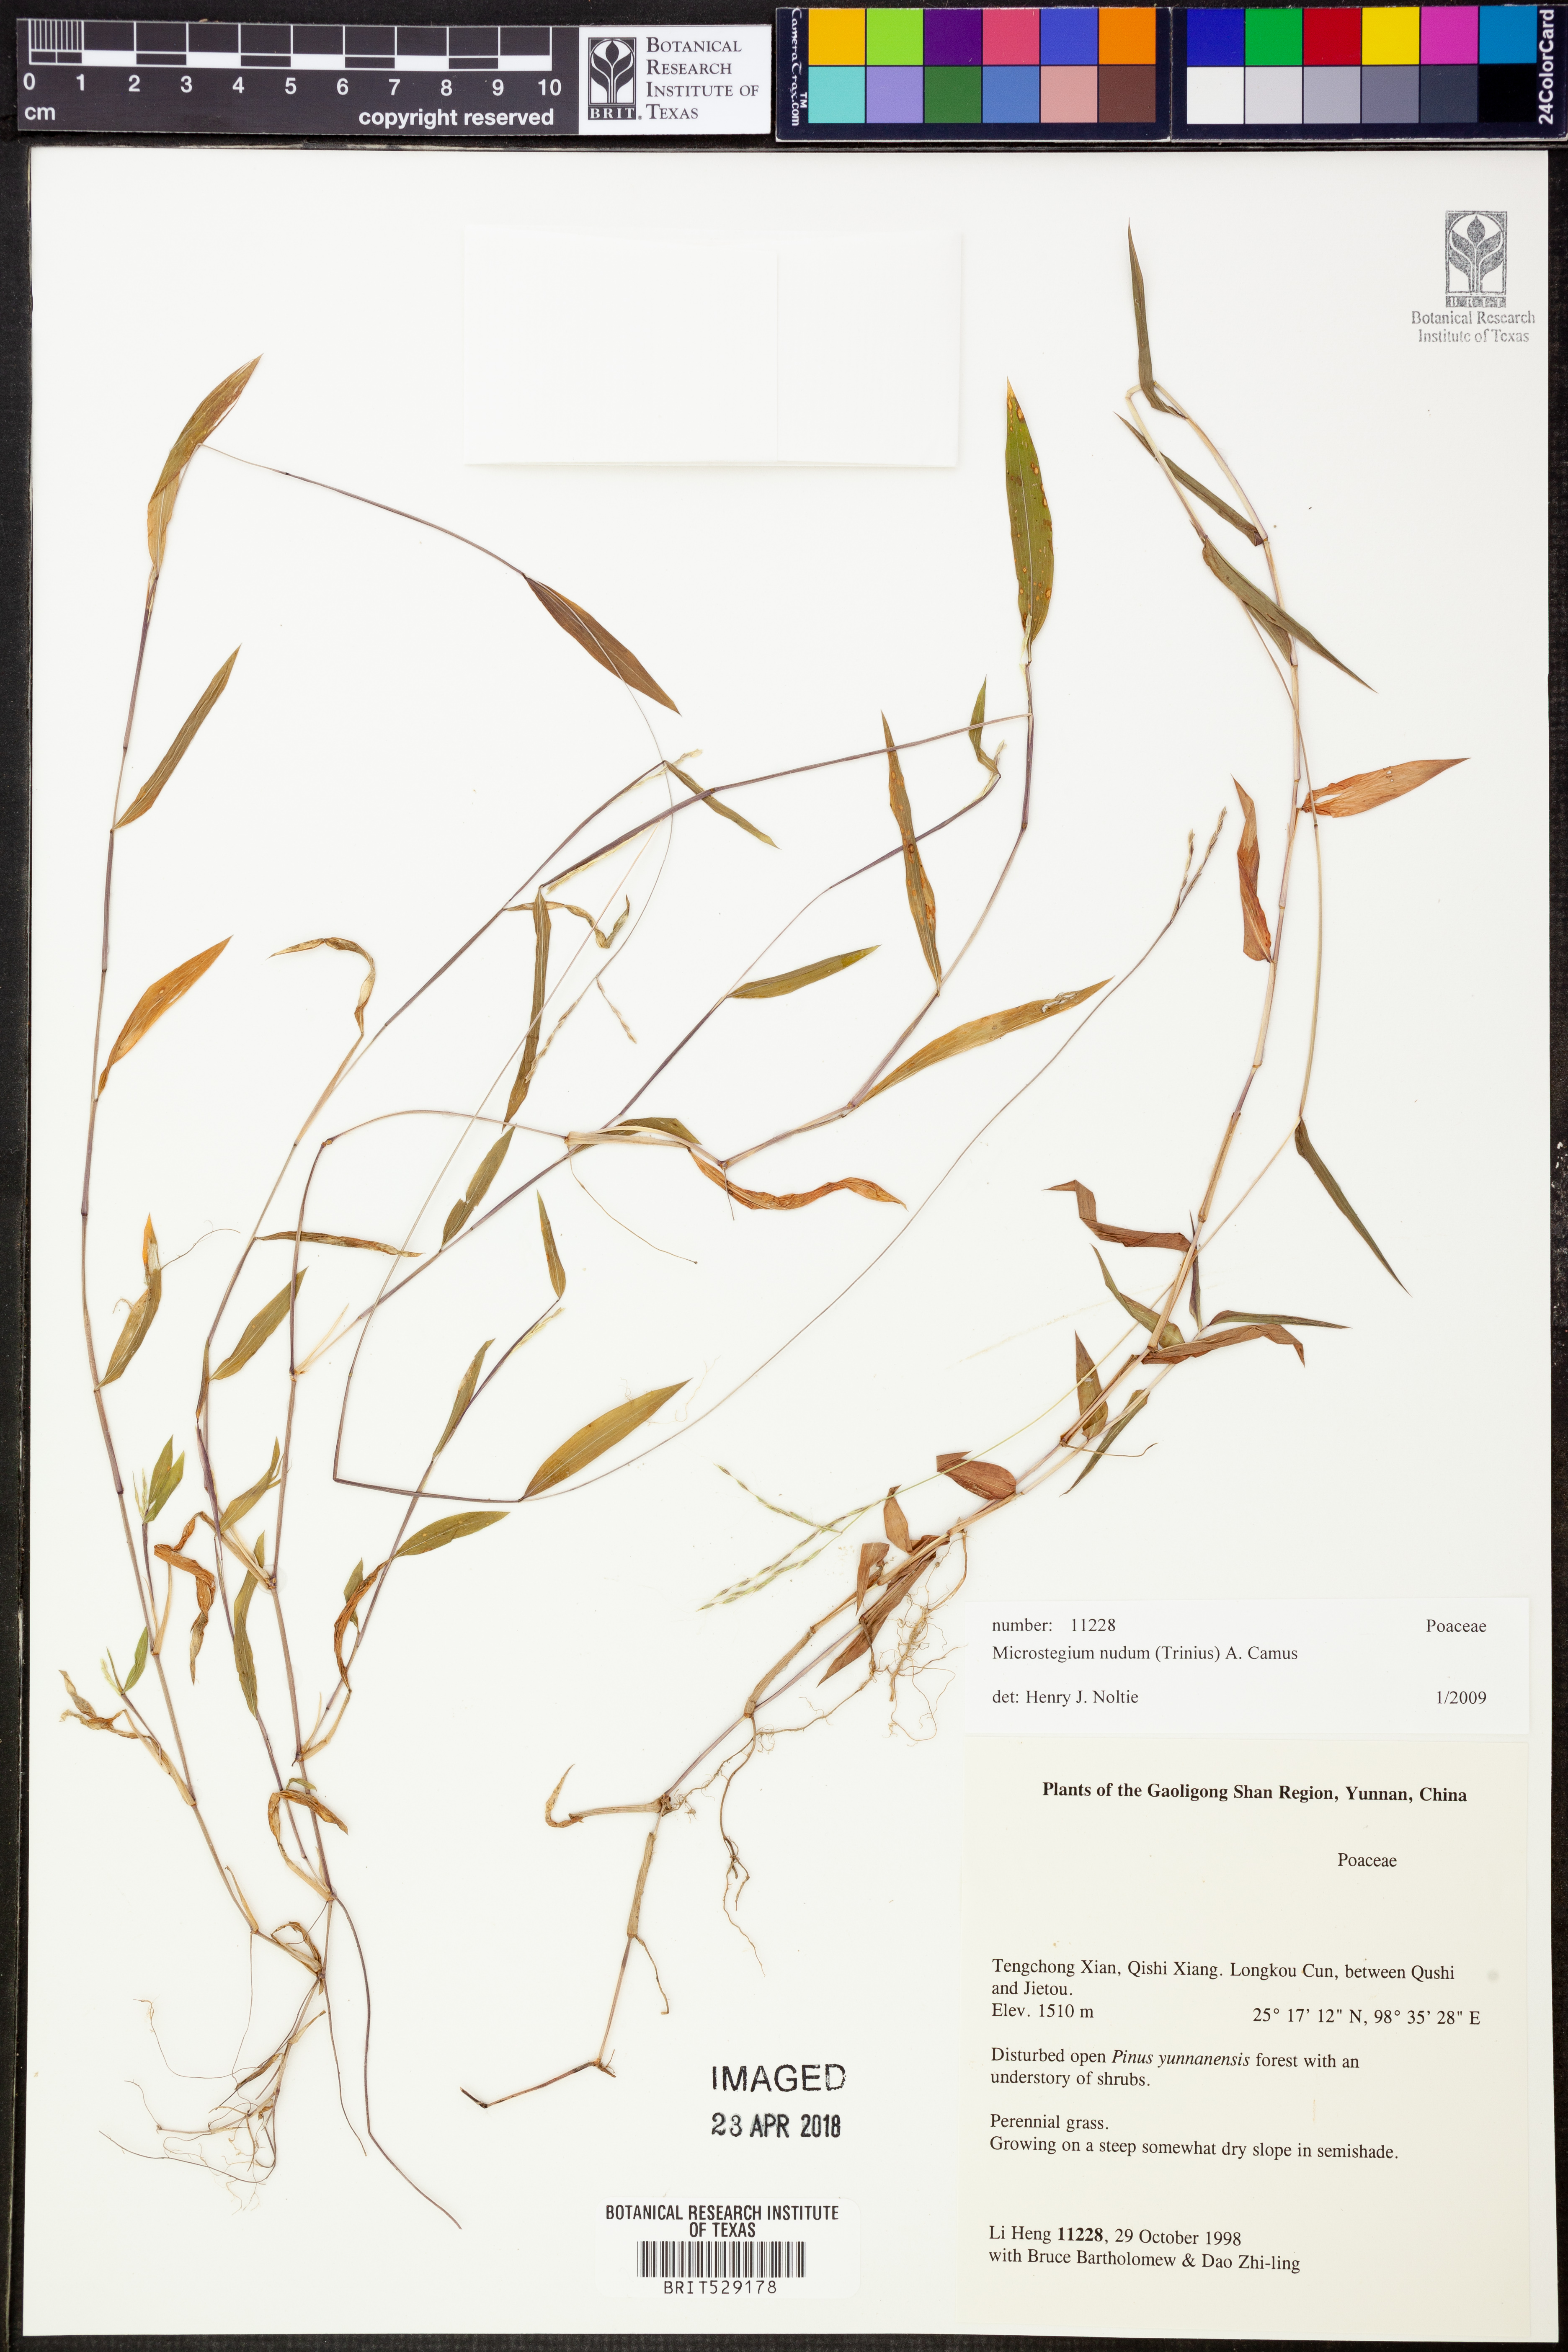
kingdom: Plantae
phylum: Tracheophyta
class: Liliopsida
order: Poales
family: Poaceae
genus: Microstegium
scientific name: Microstegium nudum
